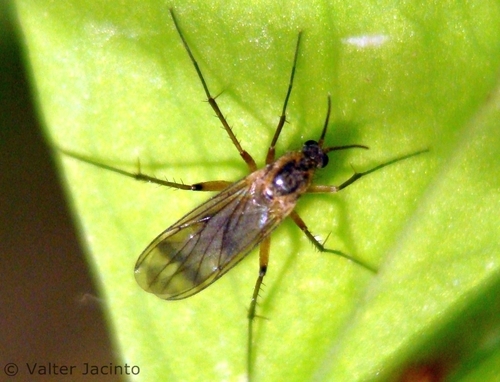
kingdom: Animalia
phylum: Arthropoda
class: Insecta
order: Diptera
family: Mycetophilidae
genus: Leia
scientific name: Leia
